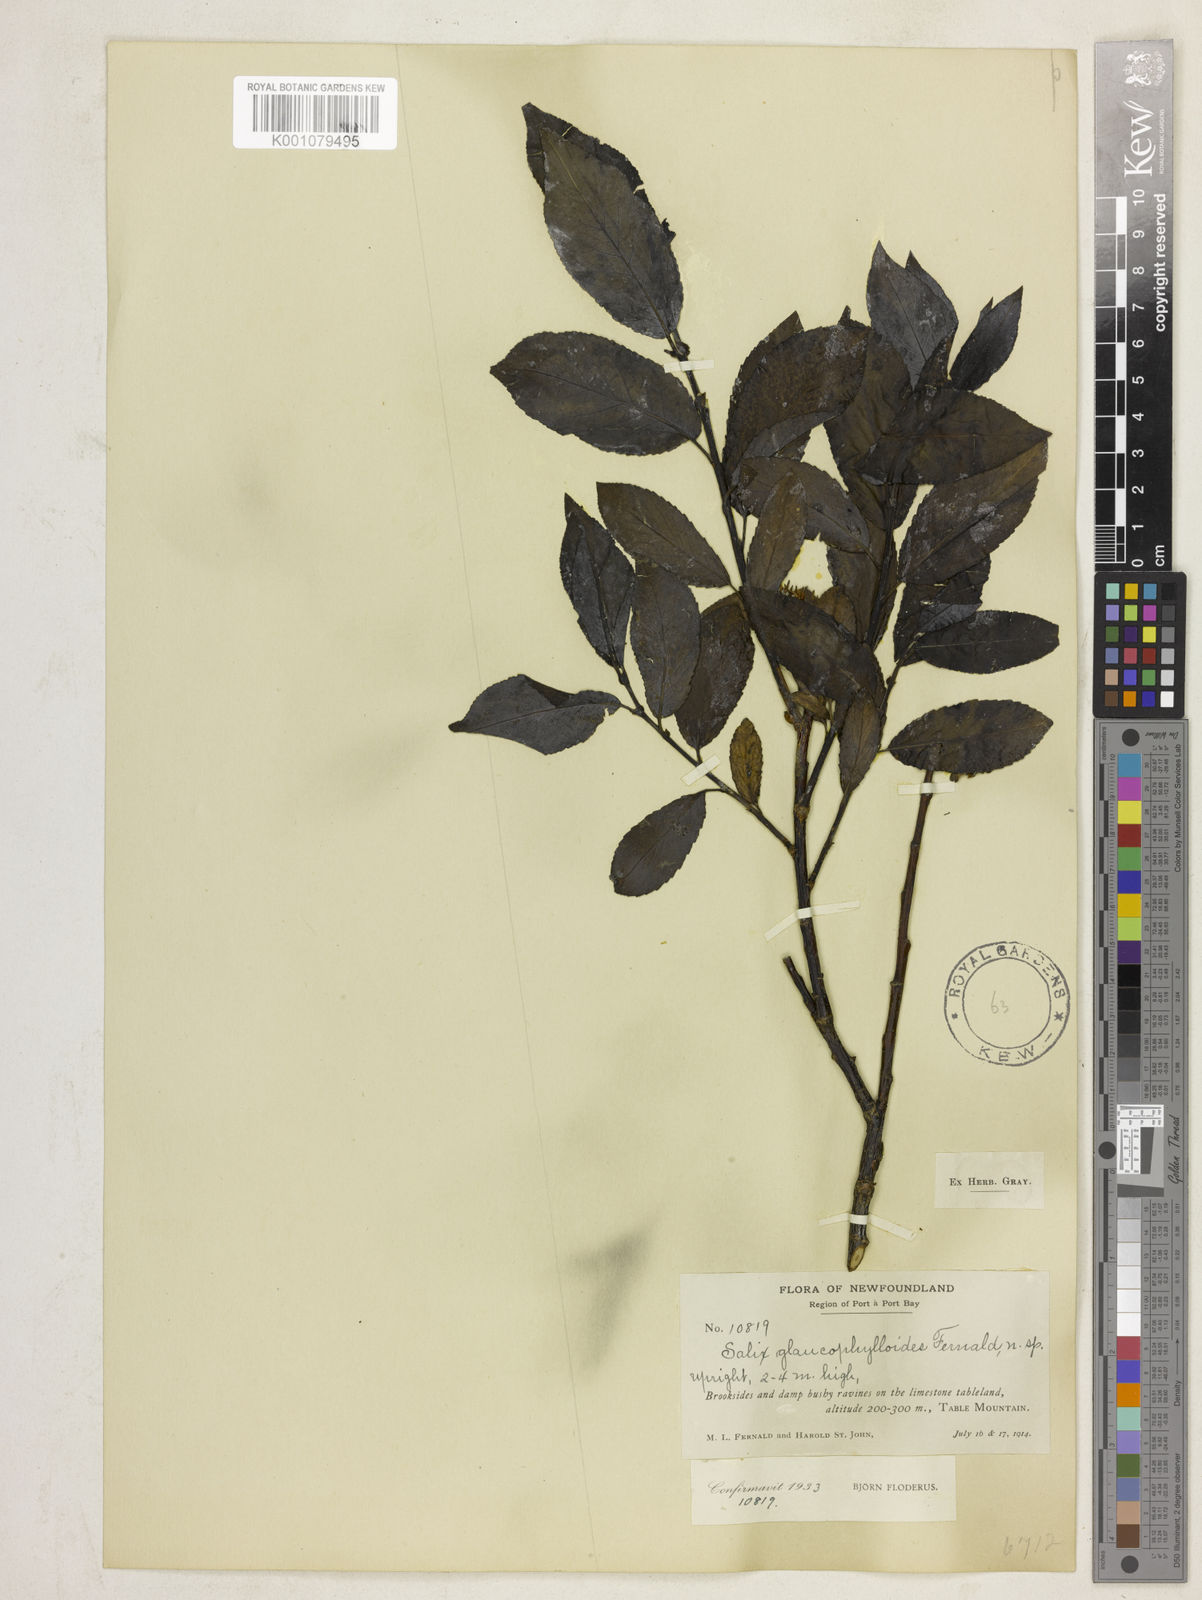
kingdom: Plantae
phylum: Tracheophyta
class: Magnoliopsida
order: Malpighiales
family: Salicaceae
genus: Salix
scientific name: Salix myricoides
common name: Bayberry willow
